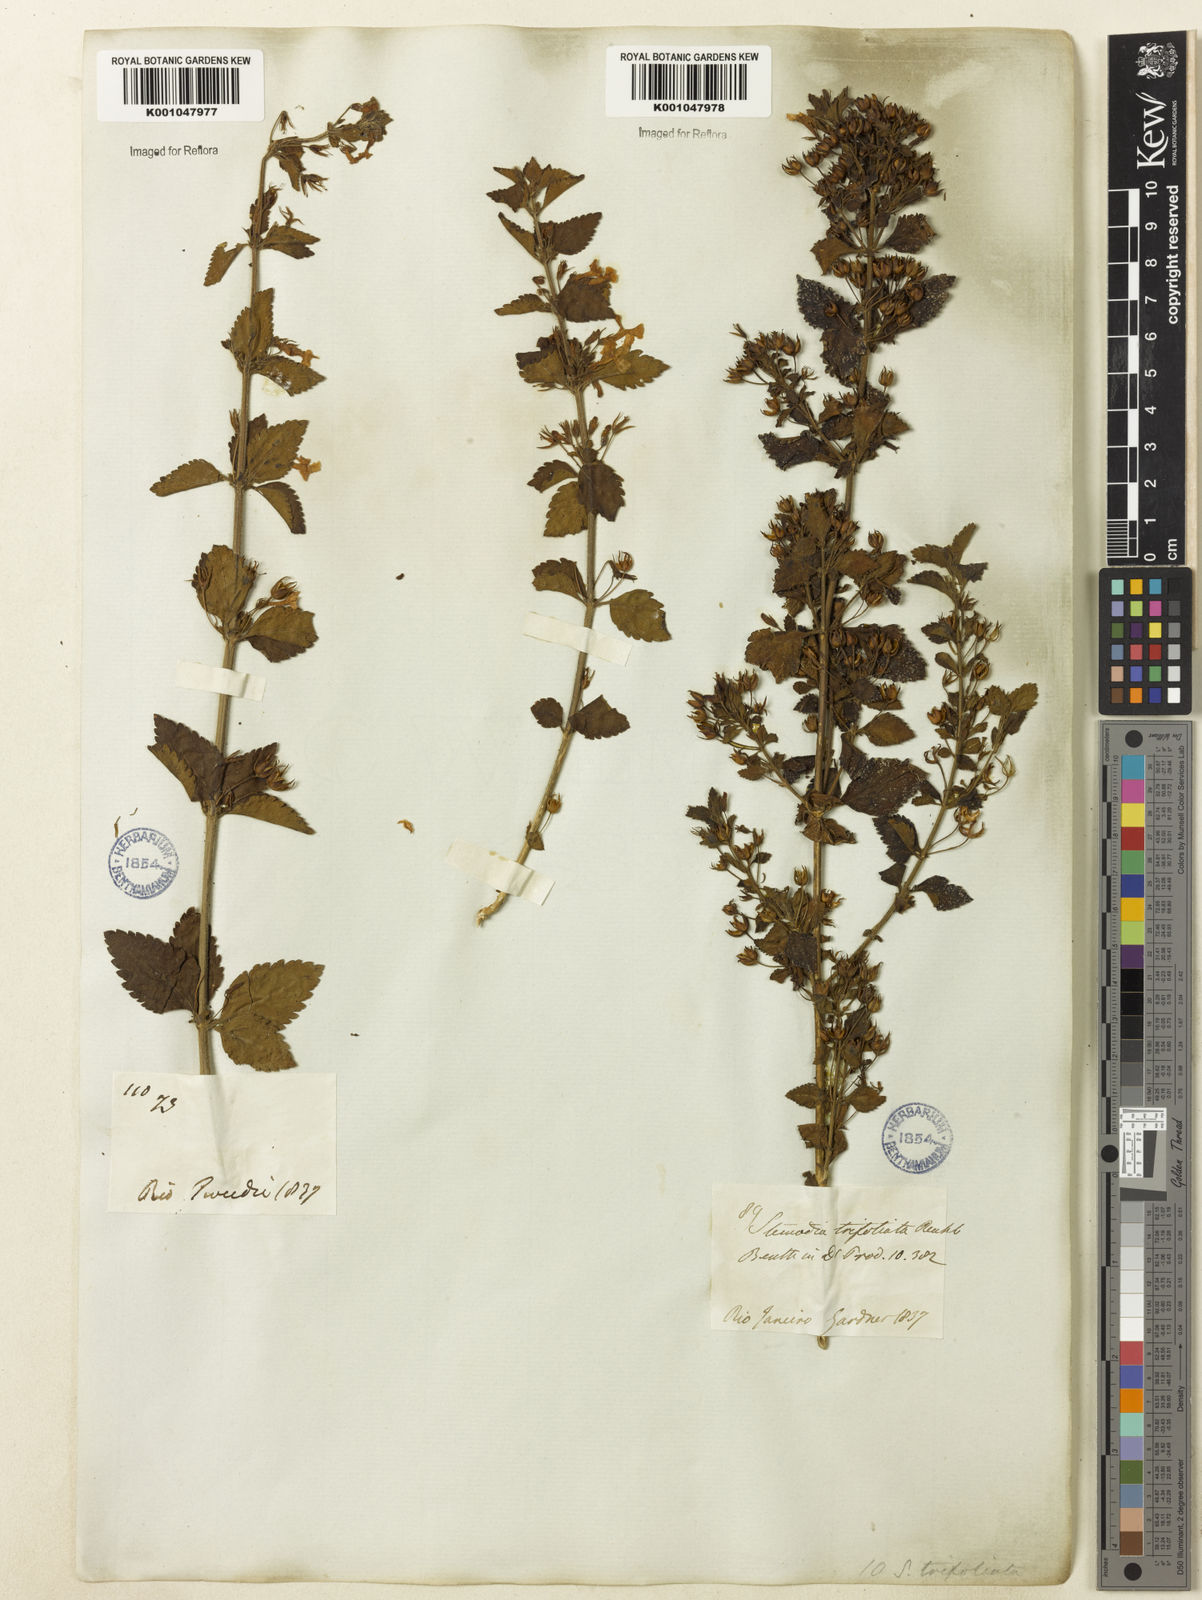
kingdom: Plantae
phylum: Tracheophyta
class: Magnoliopsida
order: Lamiales
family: Plantaginaceae
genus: Stemodia
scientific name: Stemodia trifoliata
